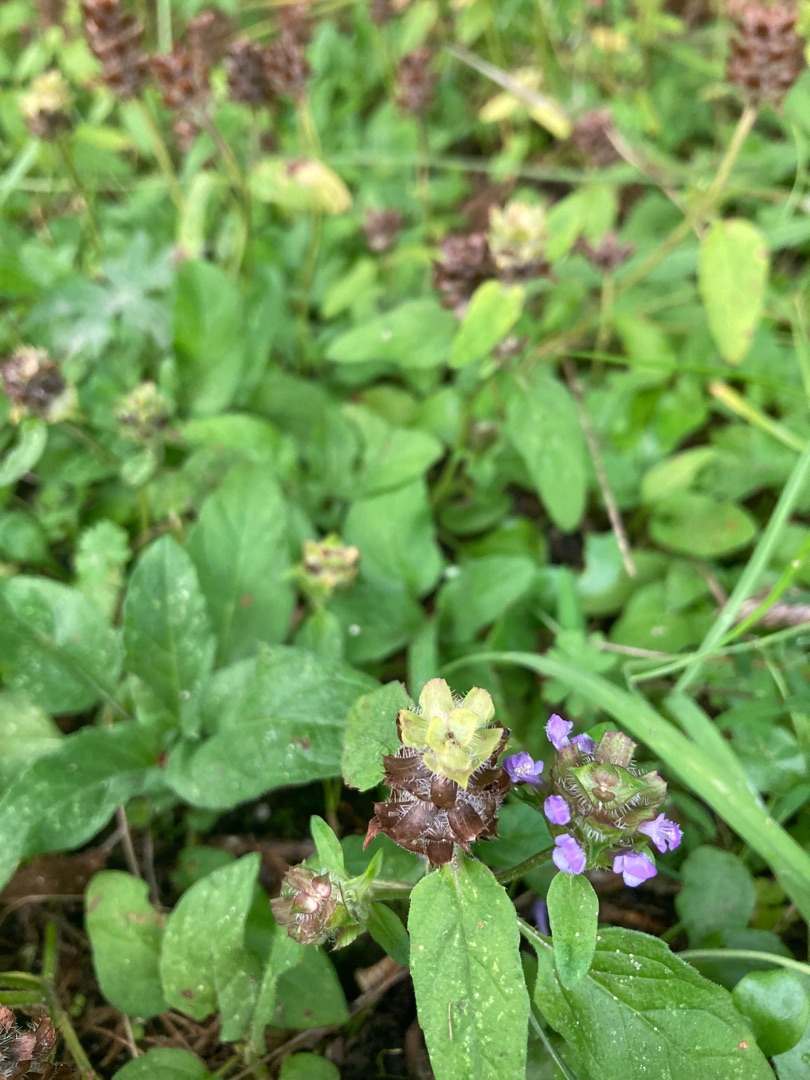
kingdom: Plantae
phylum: Tracheophyta
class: Magnoliopsida
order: Lamiales
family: Lamiaceae
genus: Prunella
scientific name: Prunella vulgaris
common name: Almindelig brunelle
